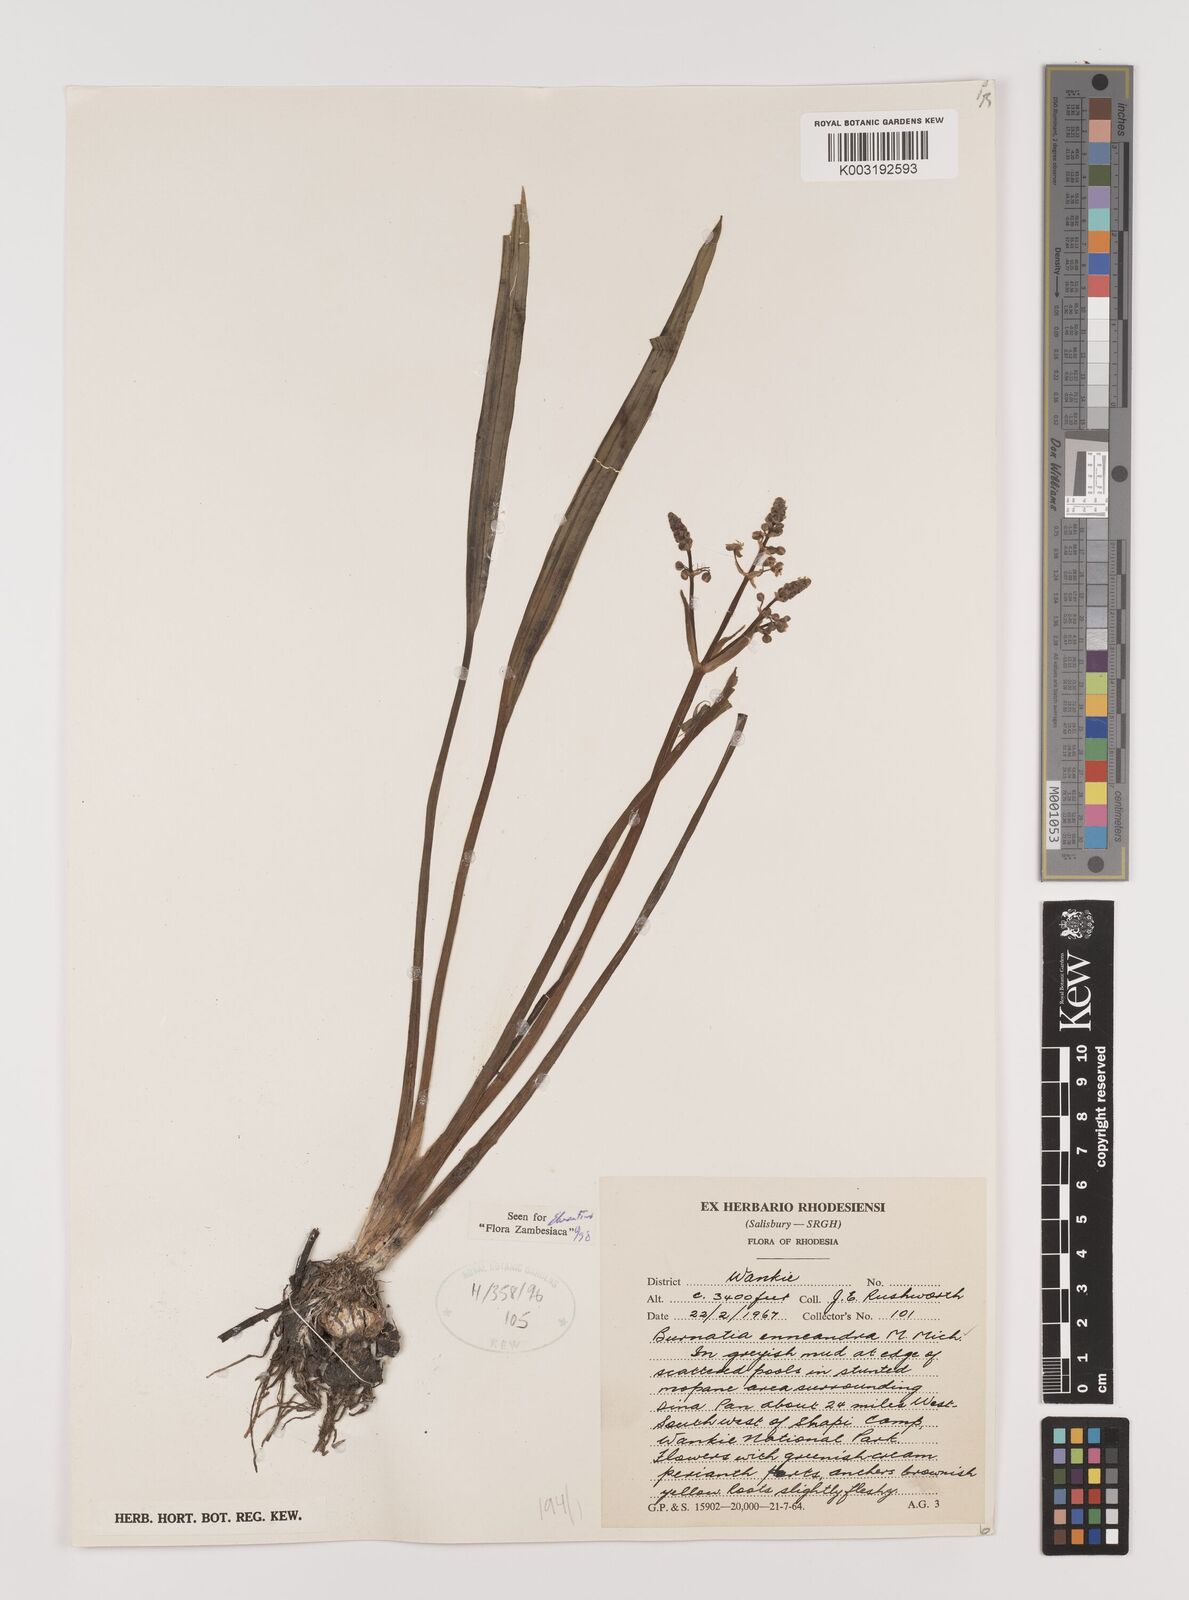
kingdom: Plantae
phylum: Tracheophyta
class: Liliopsida
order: Alismatales
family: Alismataceae
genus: Burnatia
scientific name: Burnatia enneandra
